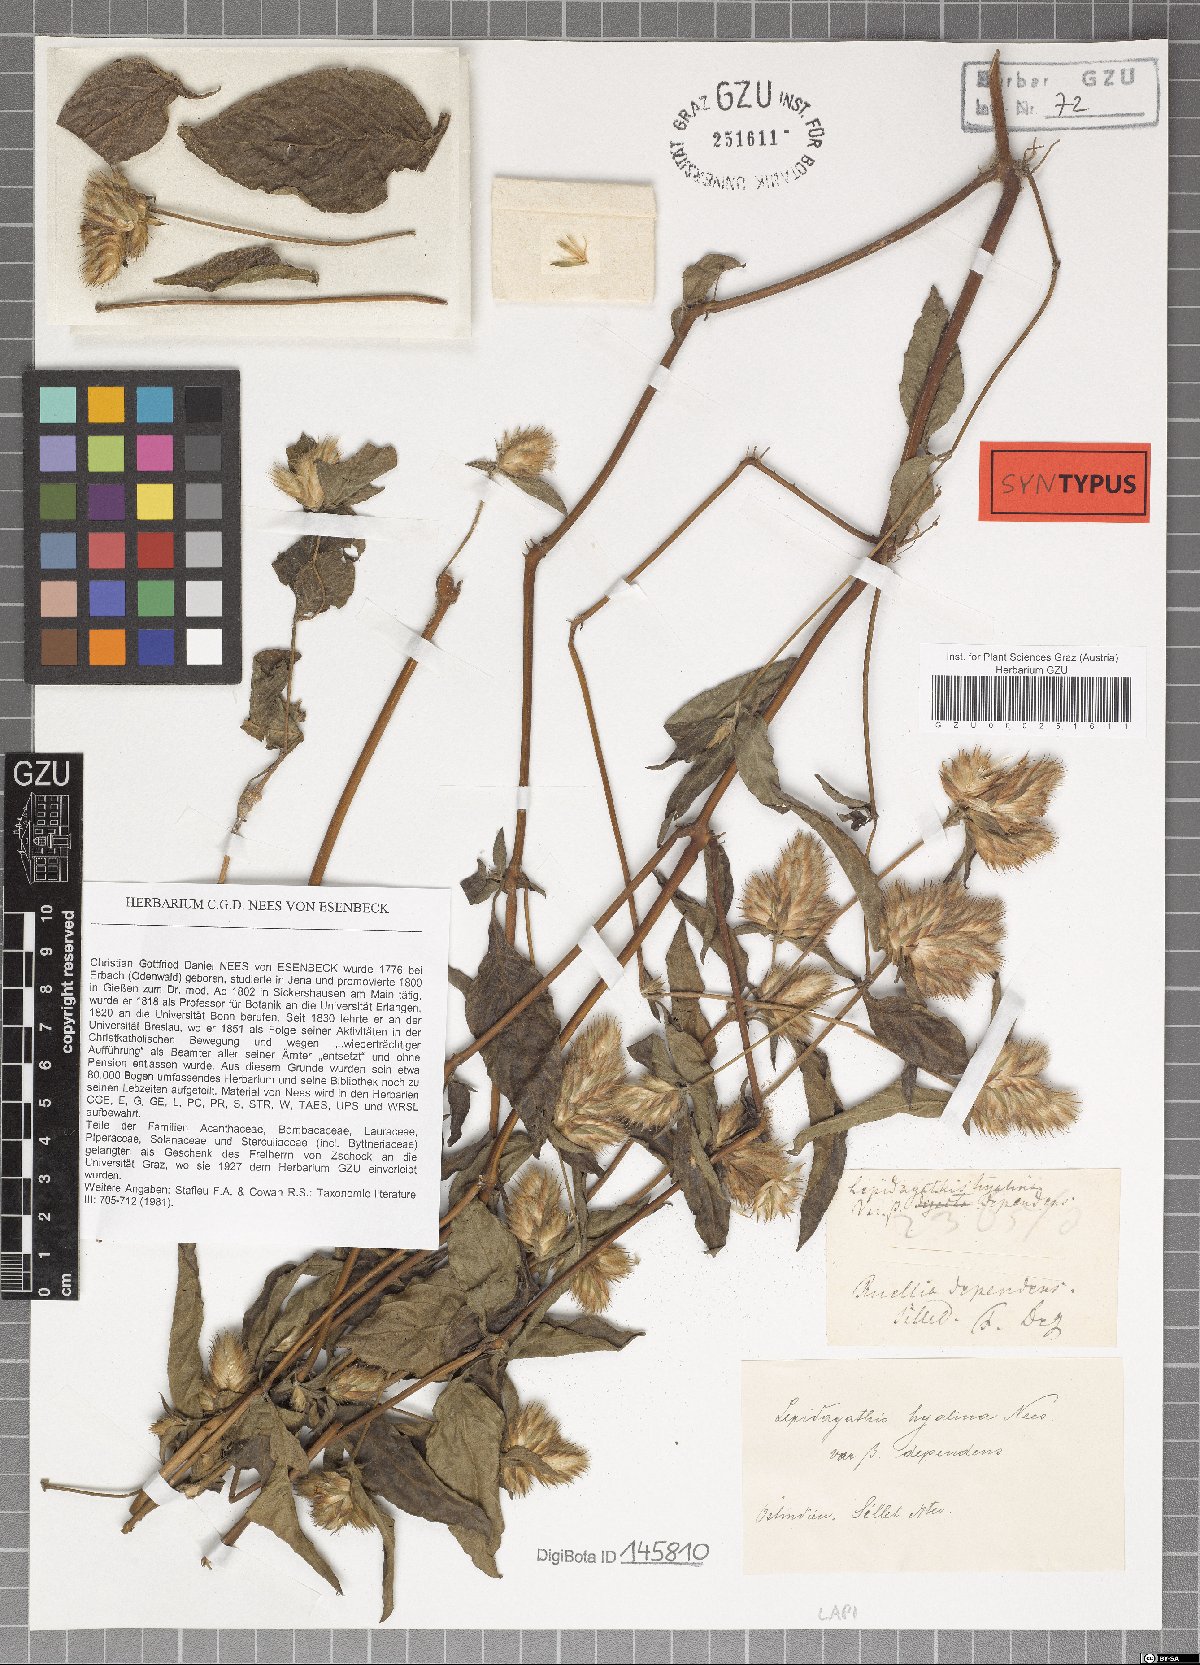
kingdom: Plantae
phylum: Tracheophyta
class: Magnoliopsida
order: Lamiales
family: Acanthaceae
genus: Lepidagathis
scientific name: Lepidagathis incurva
